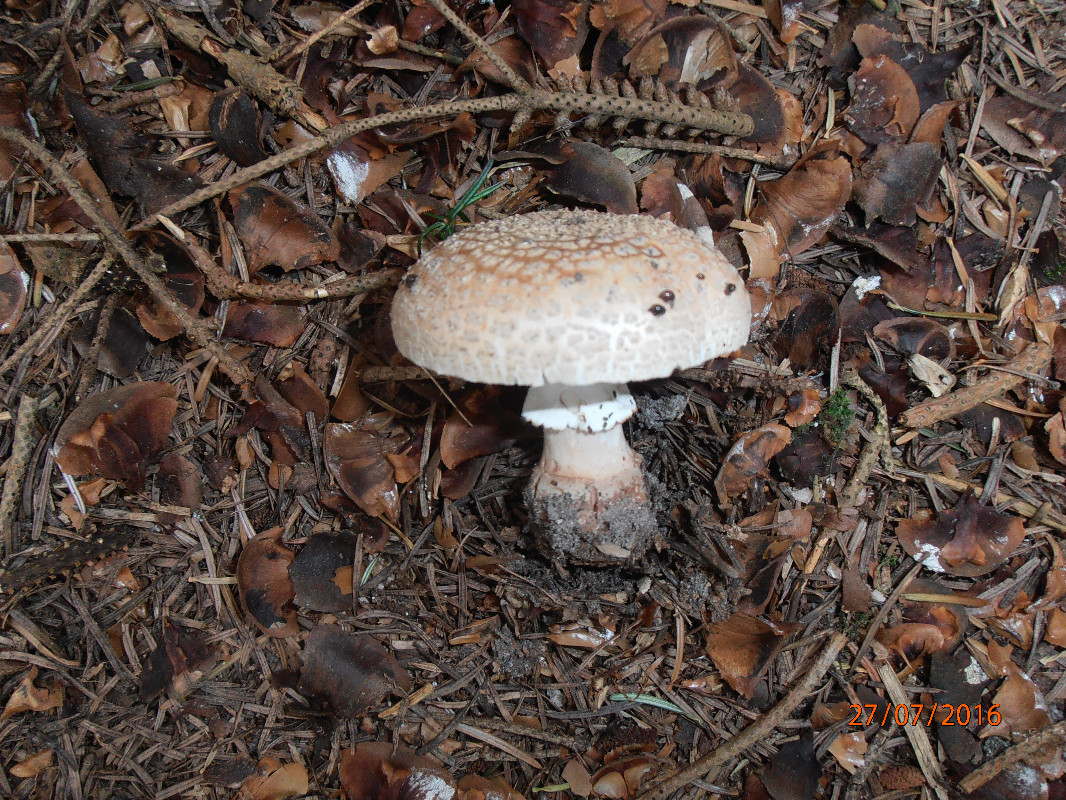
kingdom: Fungi
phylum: Basidiomycota
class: Agaricomycetes
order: Agaricales
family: Amanitaceae
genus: Amanita
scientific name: Amanita rubescens
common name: rødmende fluesvamp
